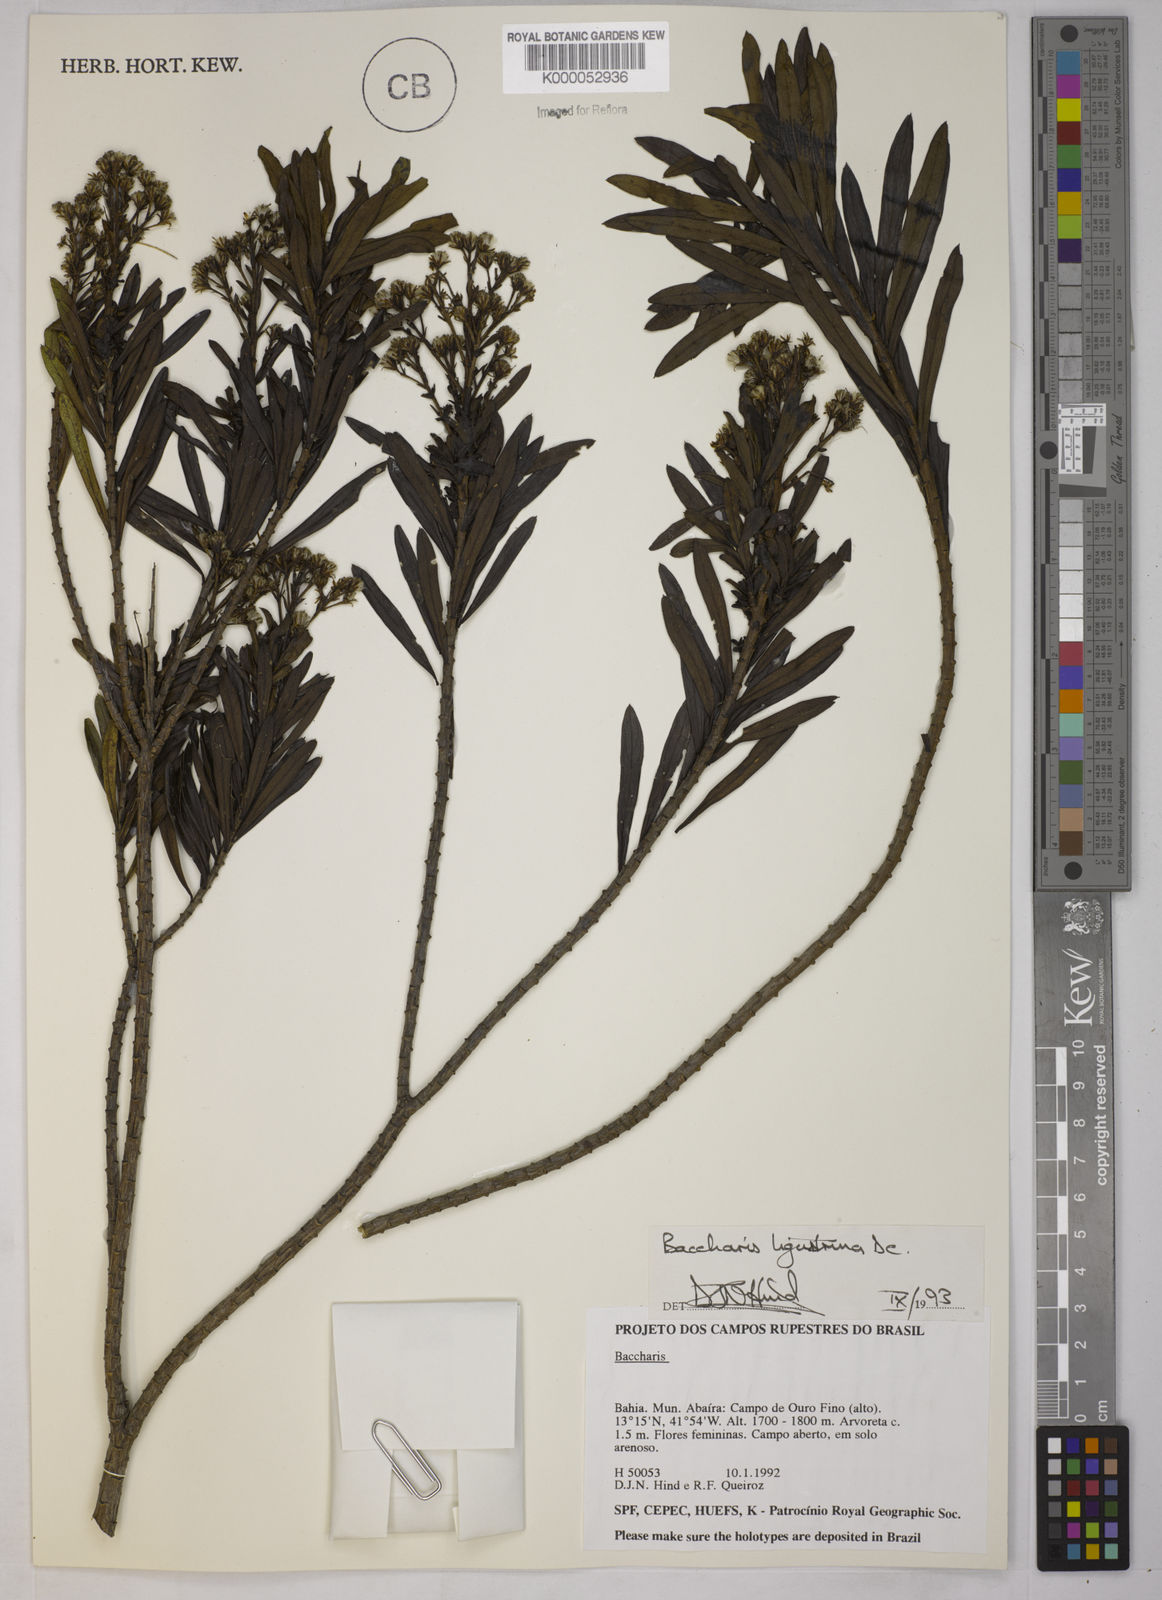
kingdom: Plantae
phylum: Tracheophyta
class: Magnoliopsida
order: Asterales
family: Asteraceae
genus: Baccharis
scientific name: Baccharis ligustrina
